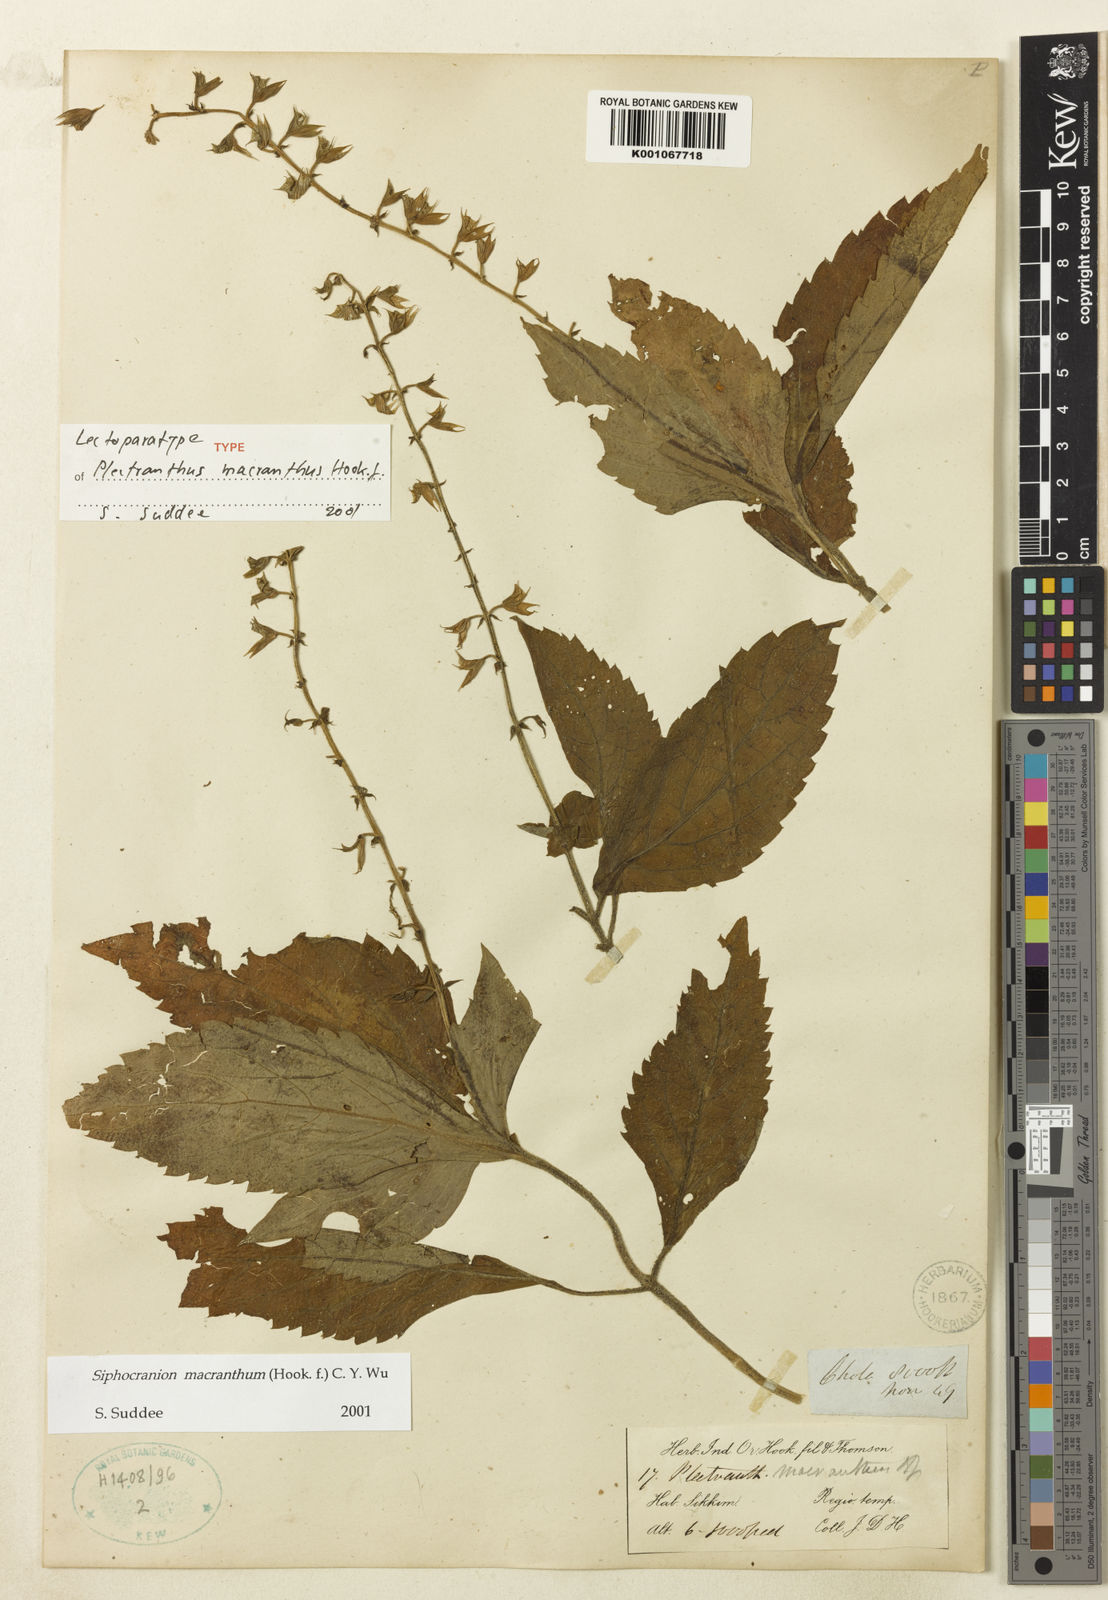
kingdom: Plantae
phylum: Tracheophyta
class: Magnoliopsida
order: Lamiales
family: Lamiaceae
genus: Siphocranion
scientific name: Siphocranion macranthum
